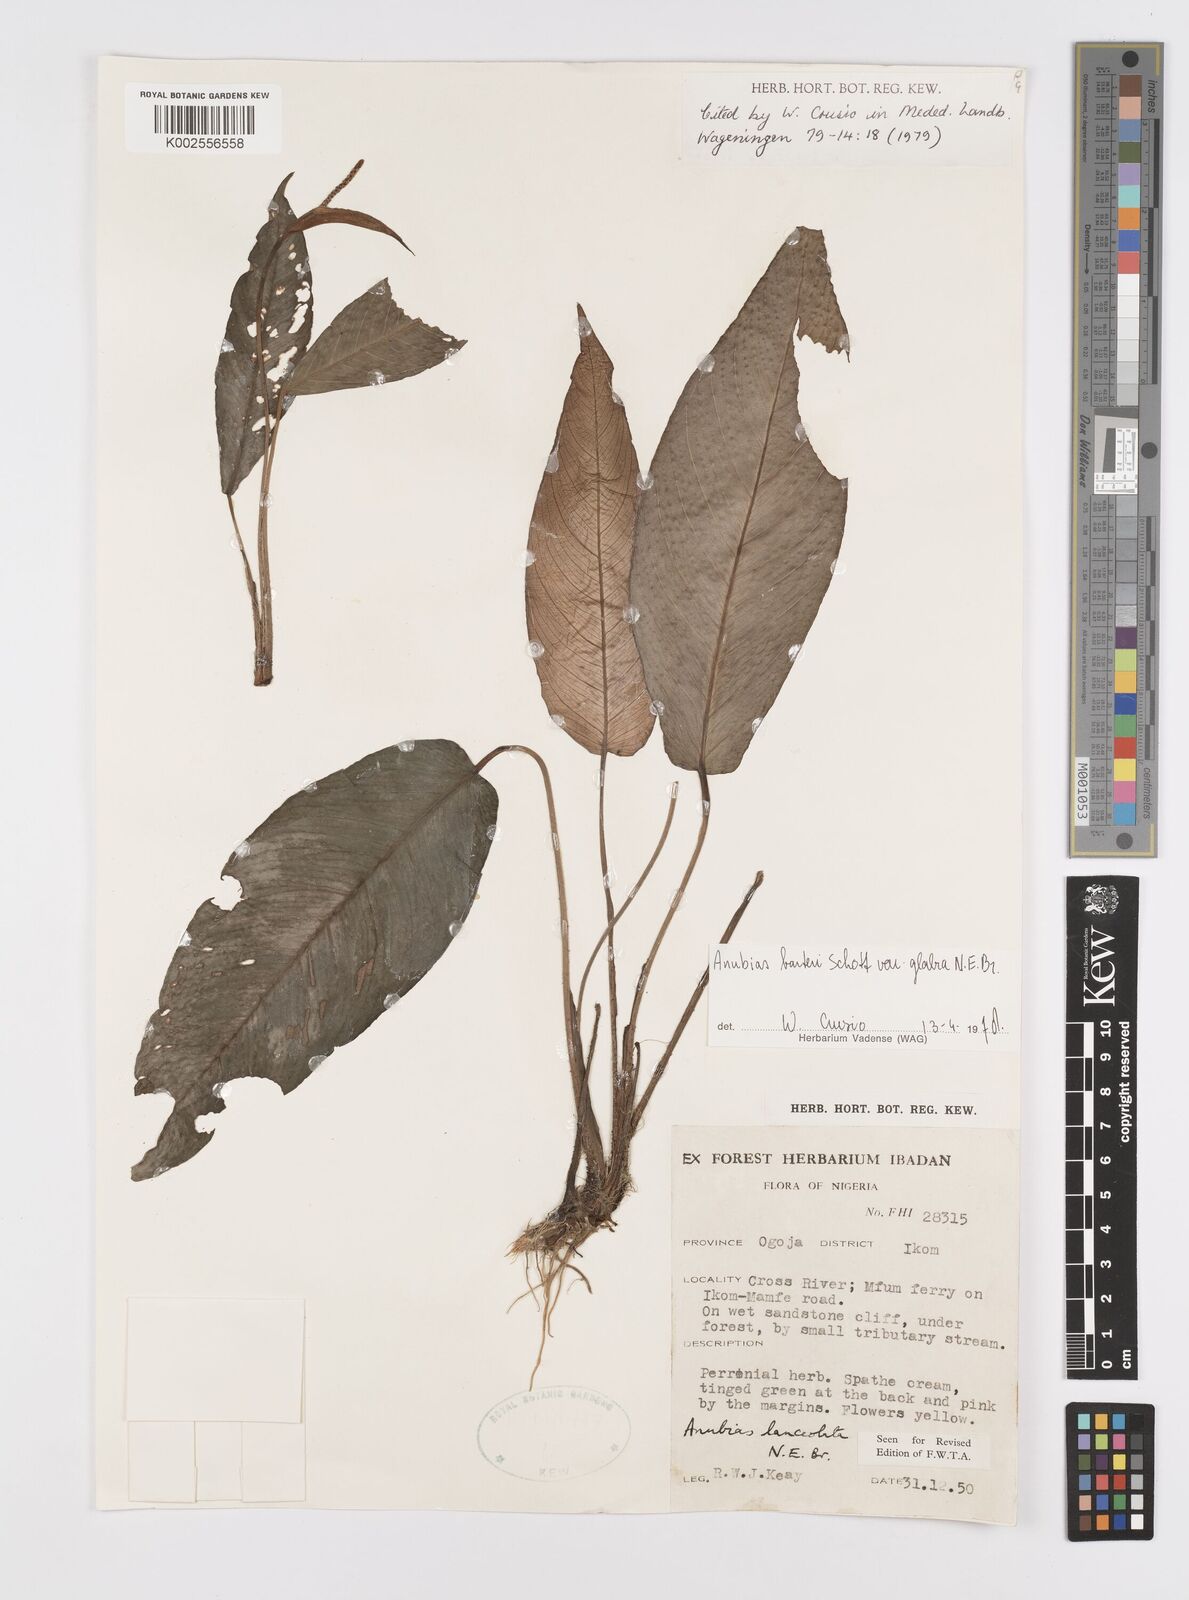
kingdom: Plantae
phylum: Tracheophyta
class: Liliopsida
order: Alismatales
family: Araceae
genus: Anubias
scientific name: Anubias barteri
